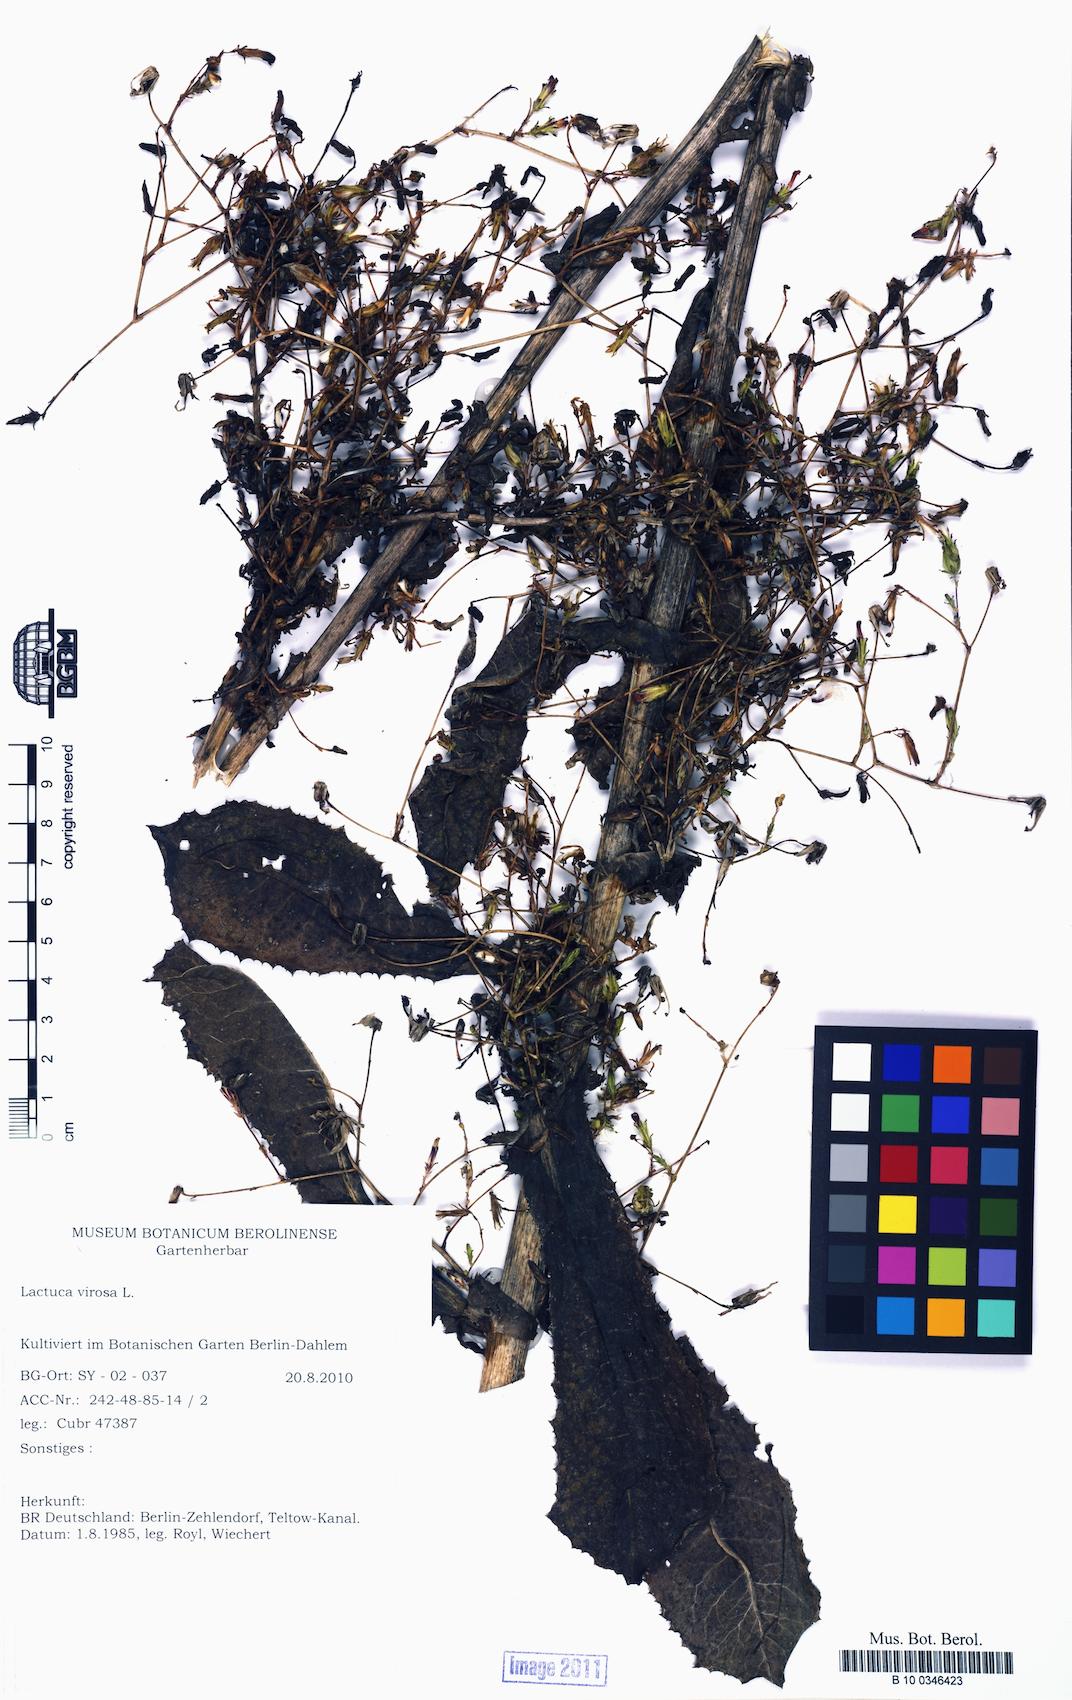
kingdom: Plantae
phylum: Tracheophyta
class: Magnoliopsida
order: Asterales
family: Asteraceae
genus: Lactuca
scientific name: Lactuca virosa
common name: Great lettuce
